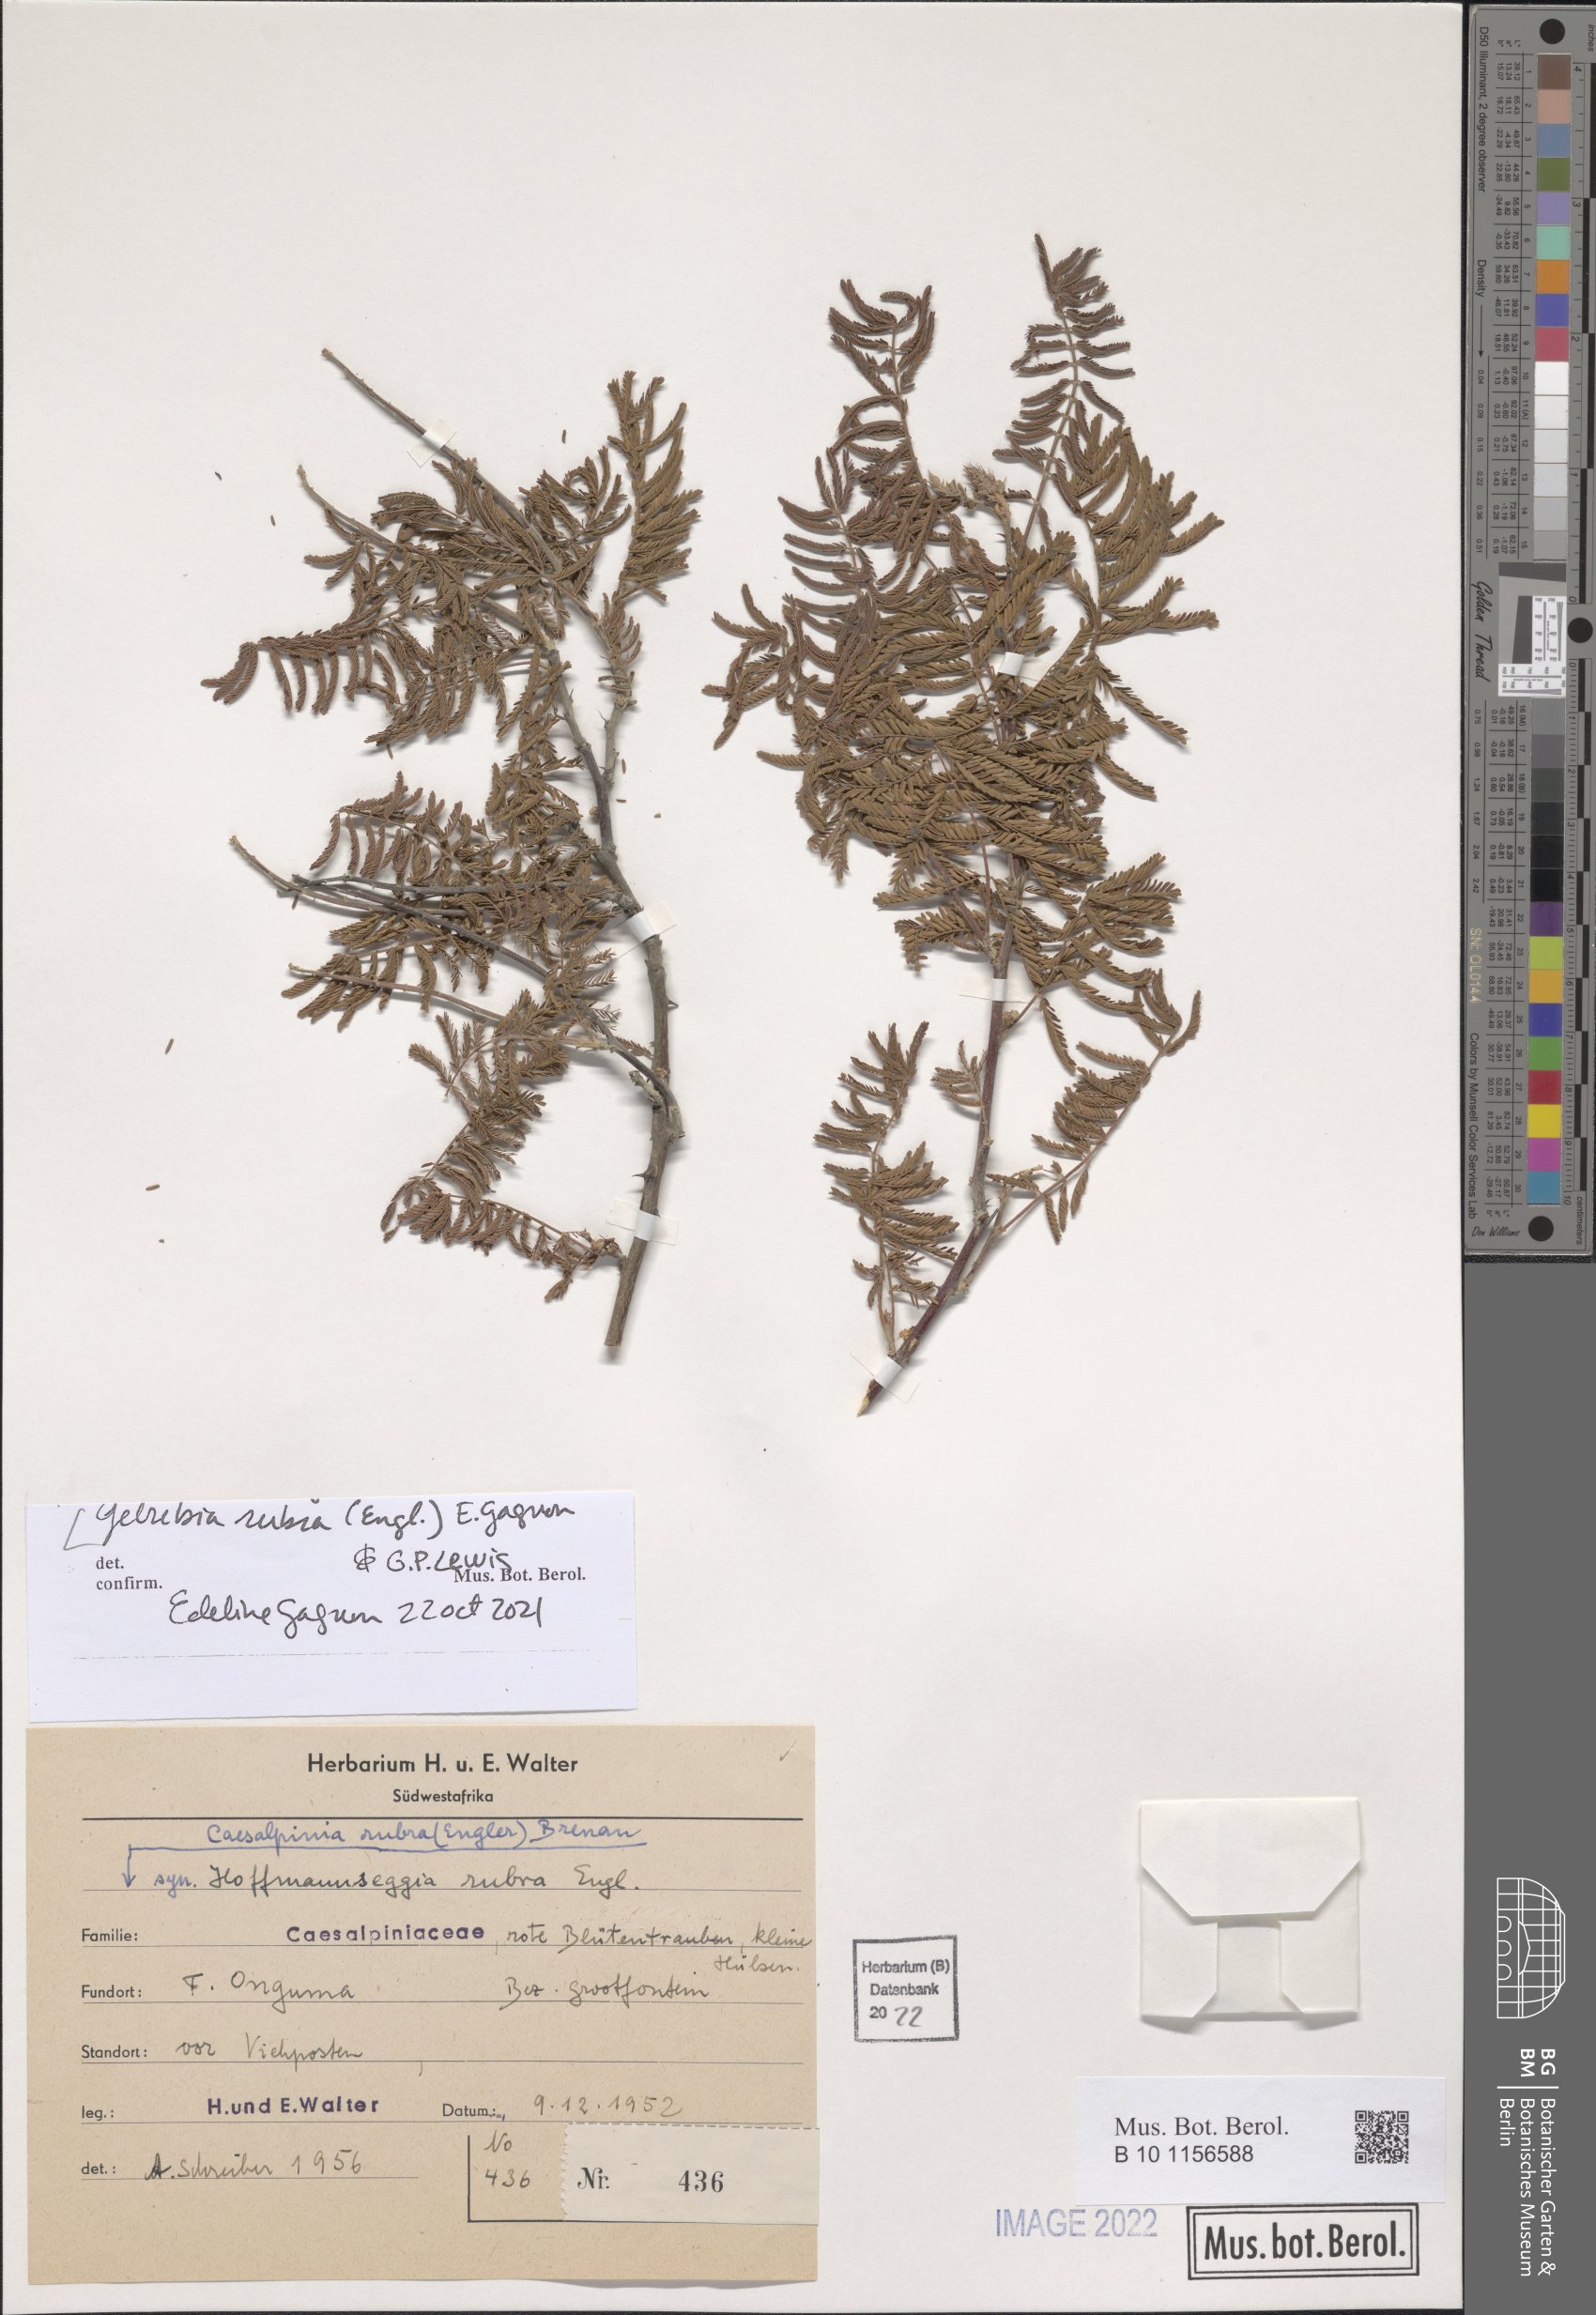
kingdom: Plantae
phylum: Tracheophyta
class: Magnoliopsida
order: Fabales
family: Fabaceae
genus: Gelrebia
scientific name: Gelrebia rubra
